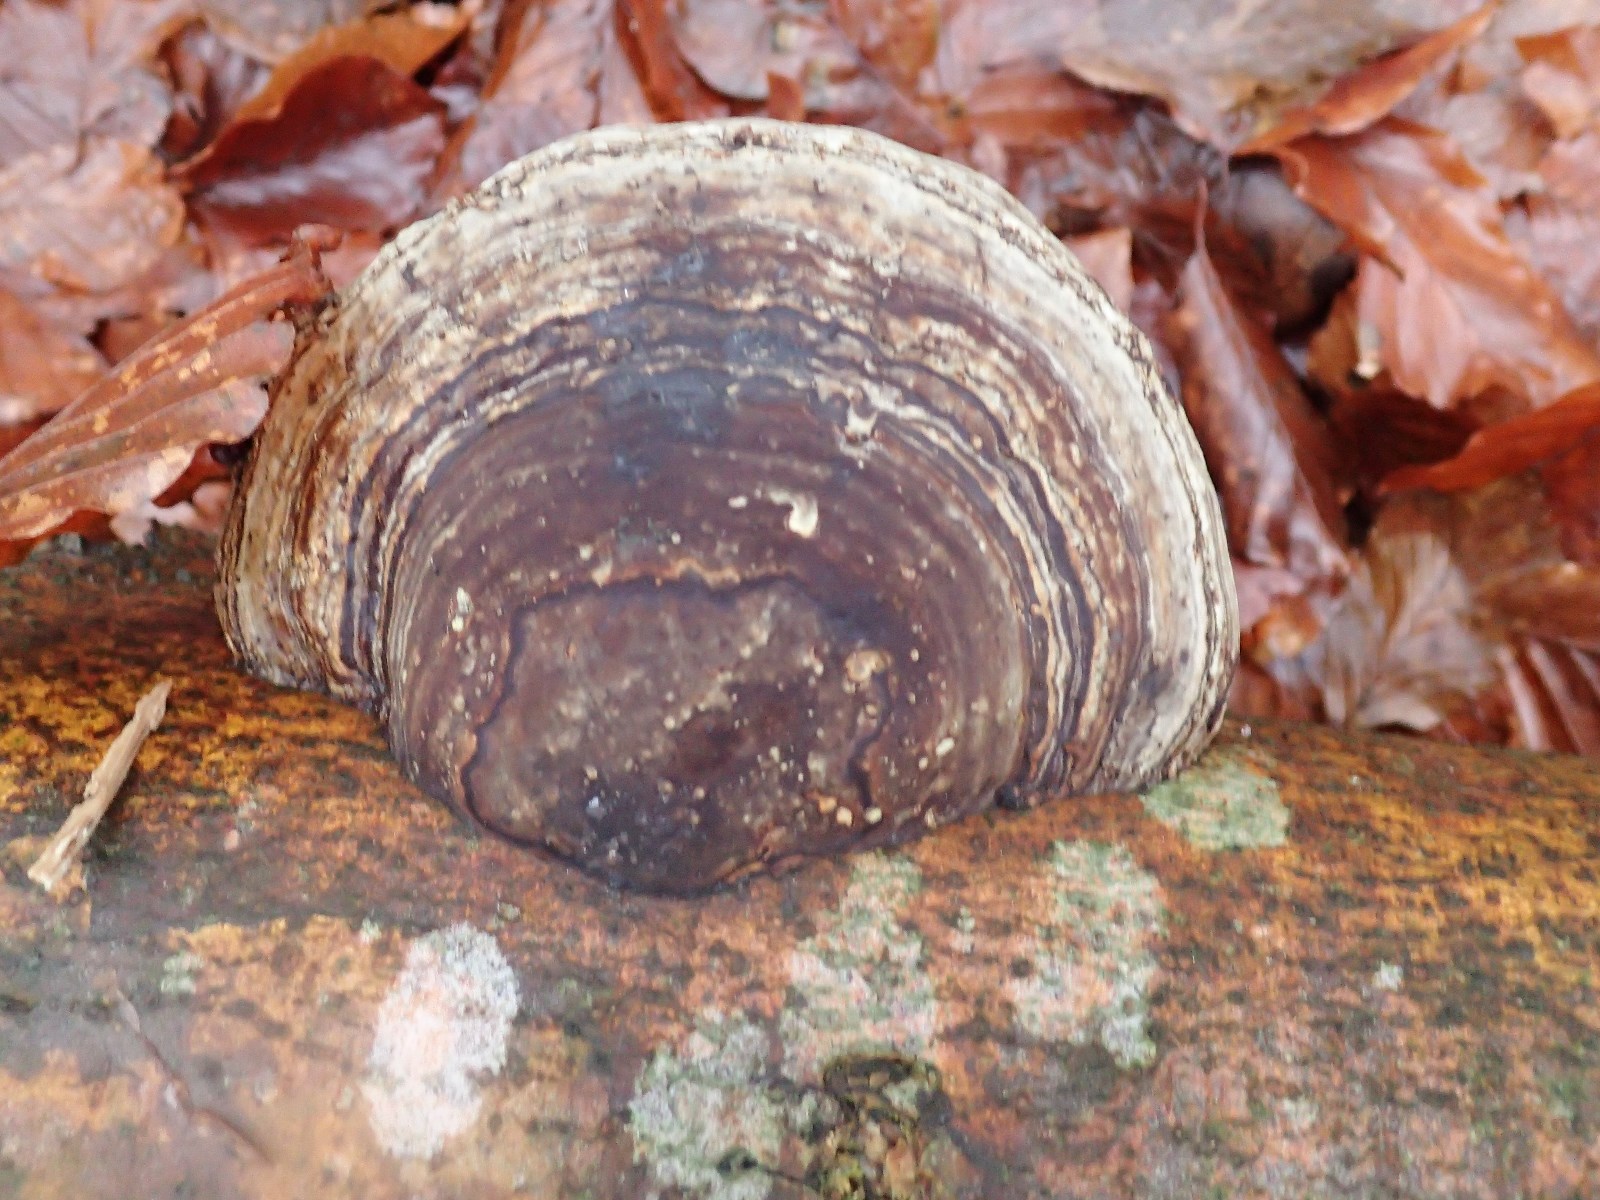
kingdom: Fungi
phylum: Basidiomycota
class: Agaricomycetes
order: Polyporales
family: Polyporaceae
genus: Fomes
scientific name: Fomes fomentarius
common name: tøndersvamp
